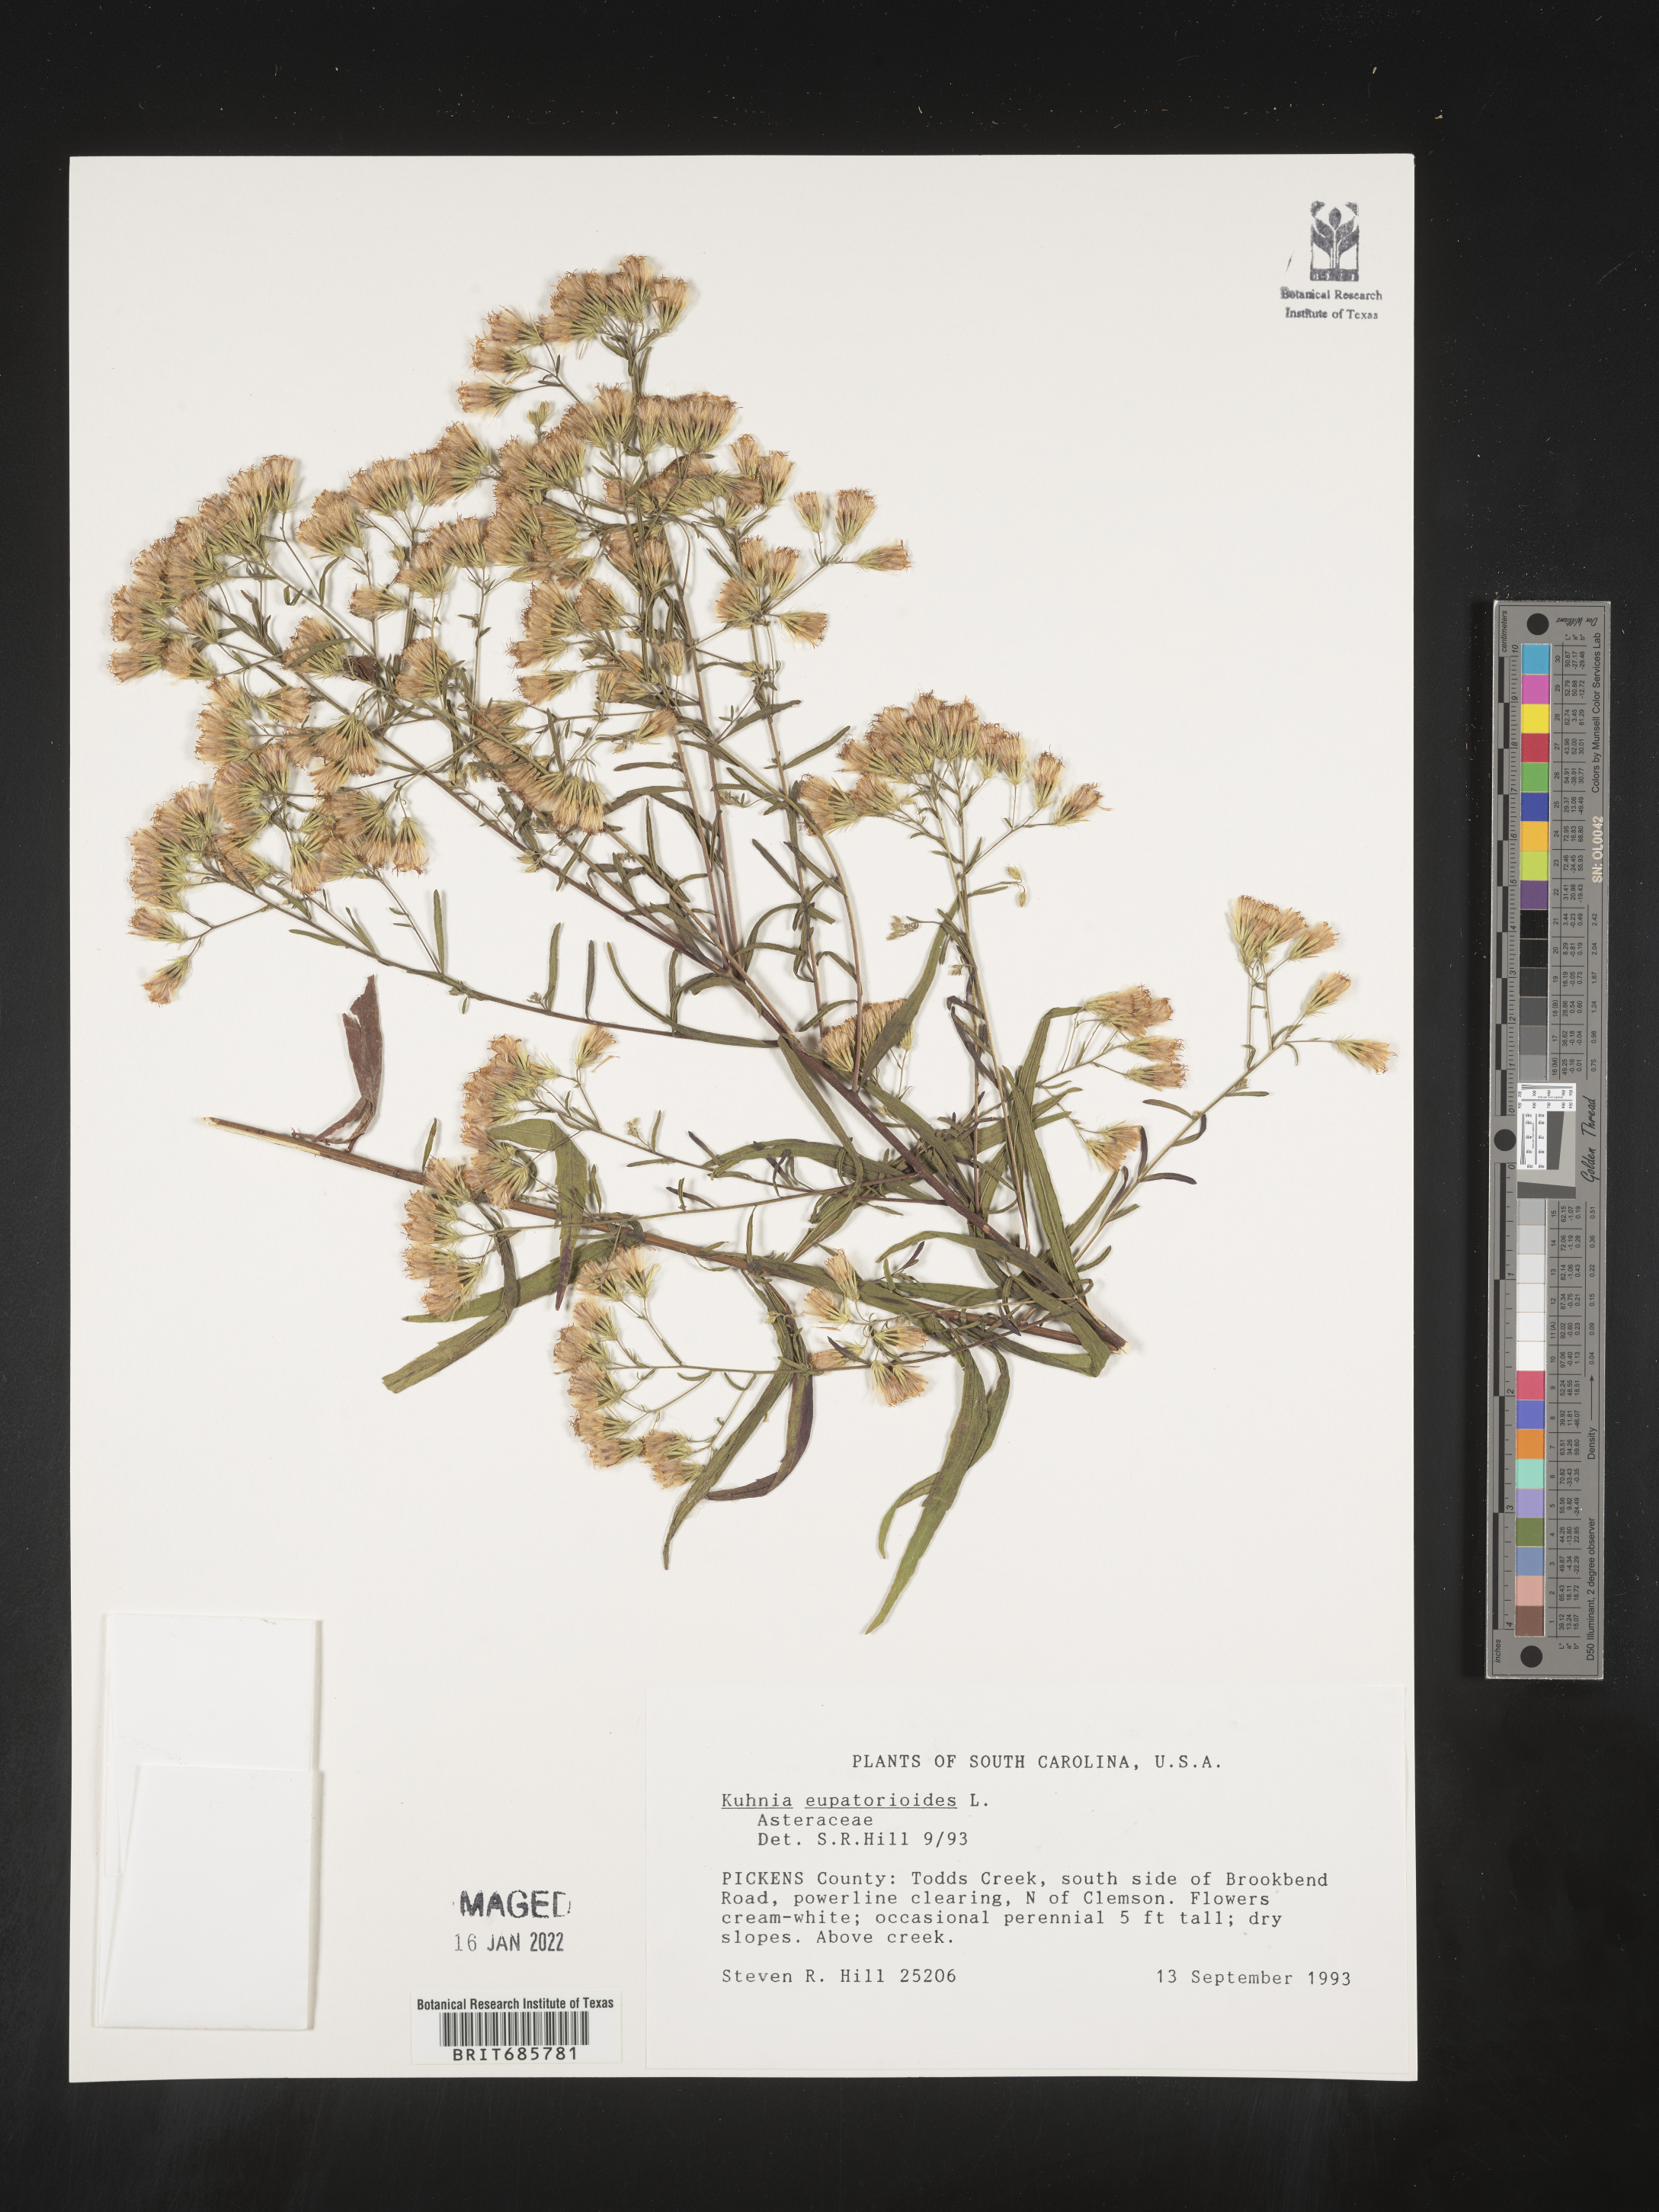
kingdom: Plantae
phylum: Tracheophyta
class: Magnoliopsida
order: Asterales
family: Asteraceae
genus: Brickellia
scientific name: Brickellia eupatorioides
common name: False boneset
